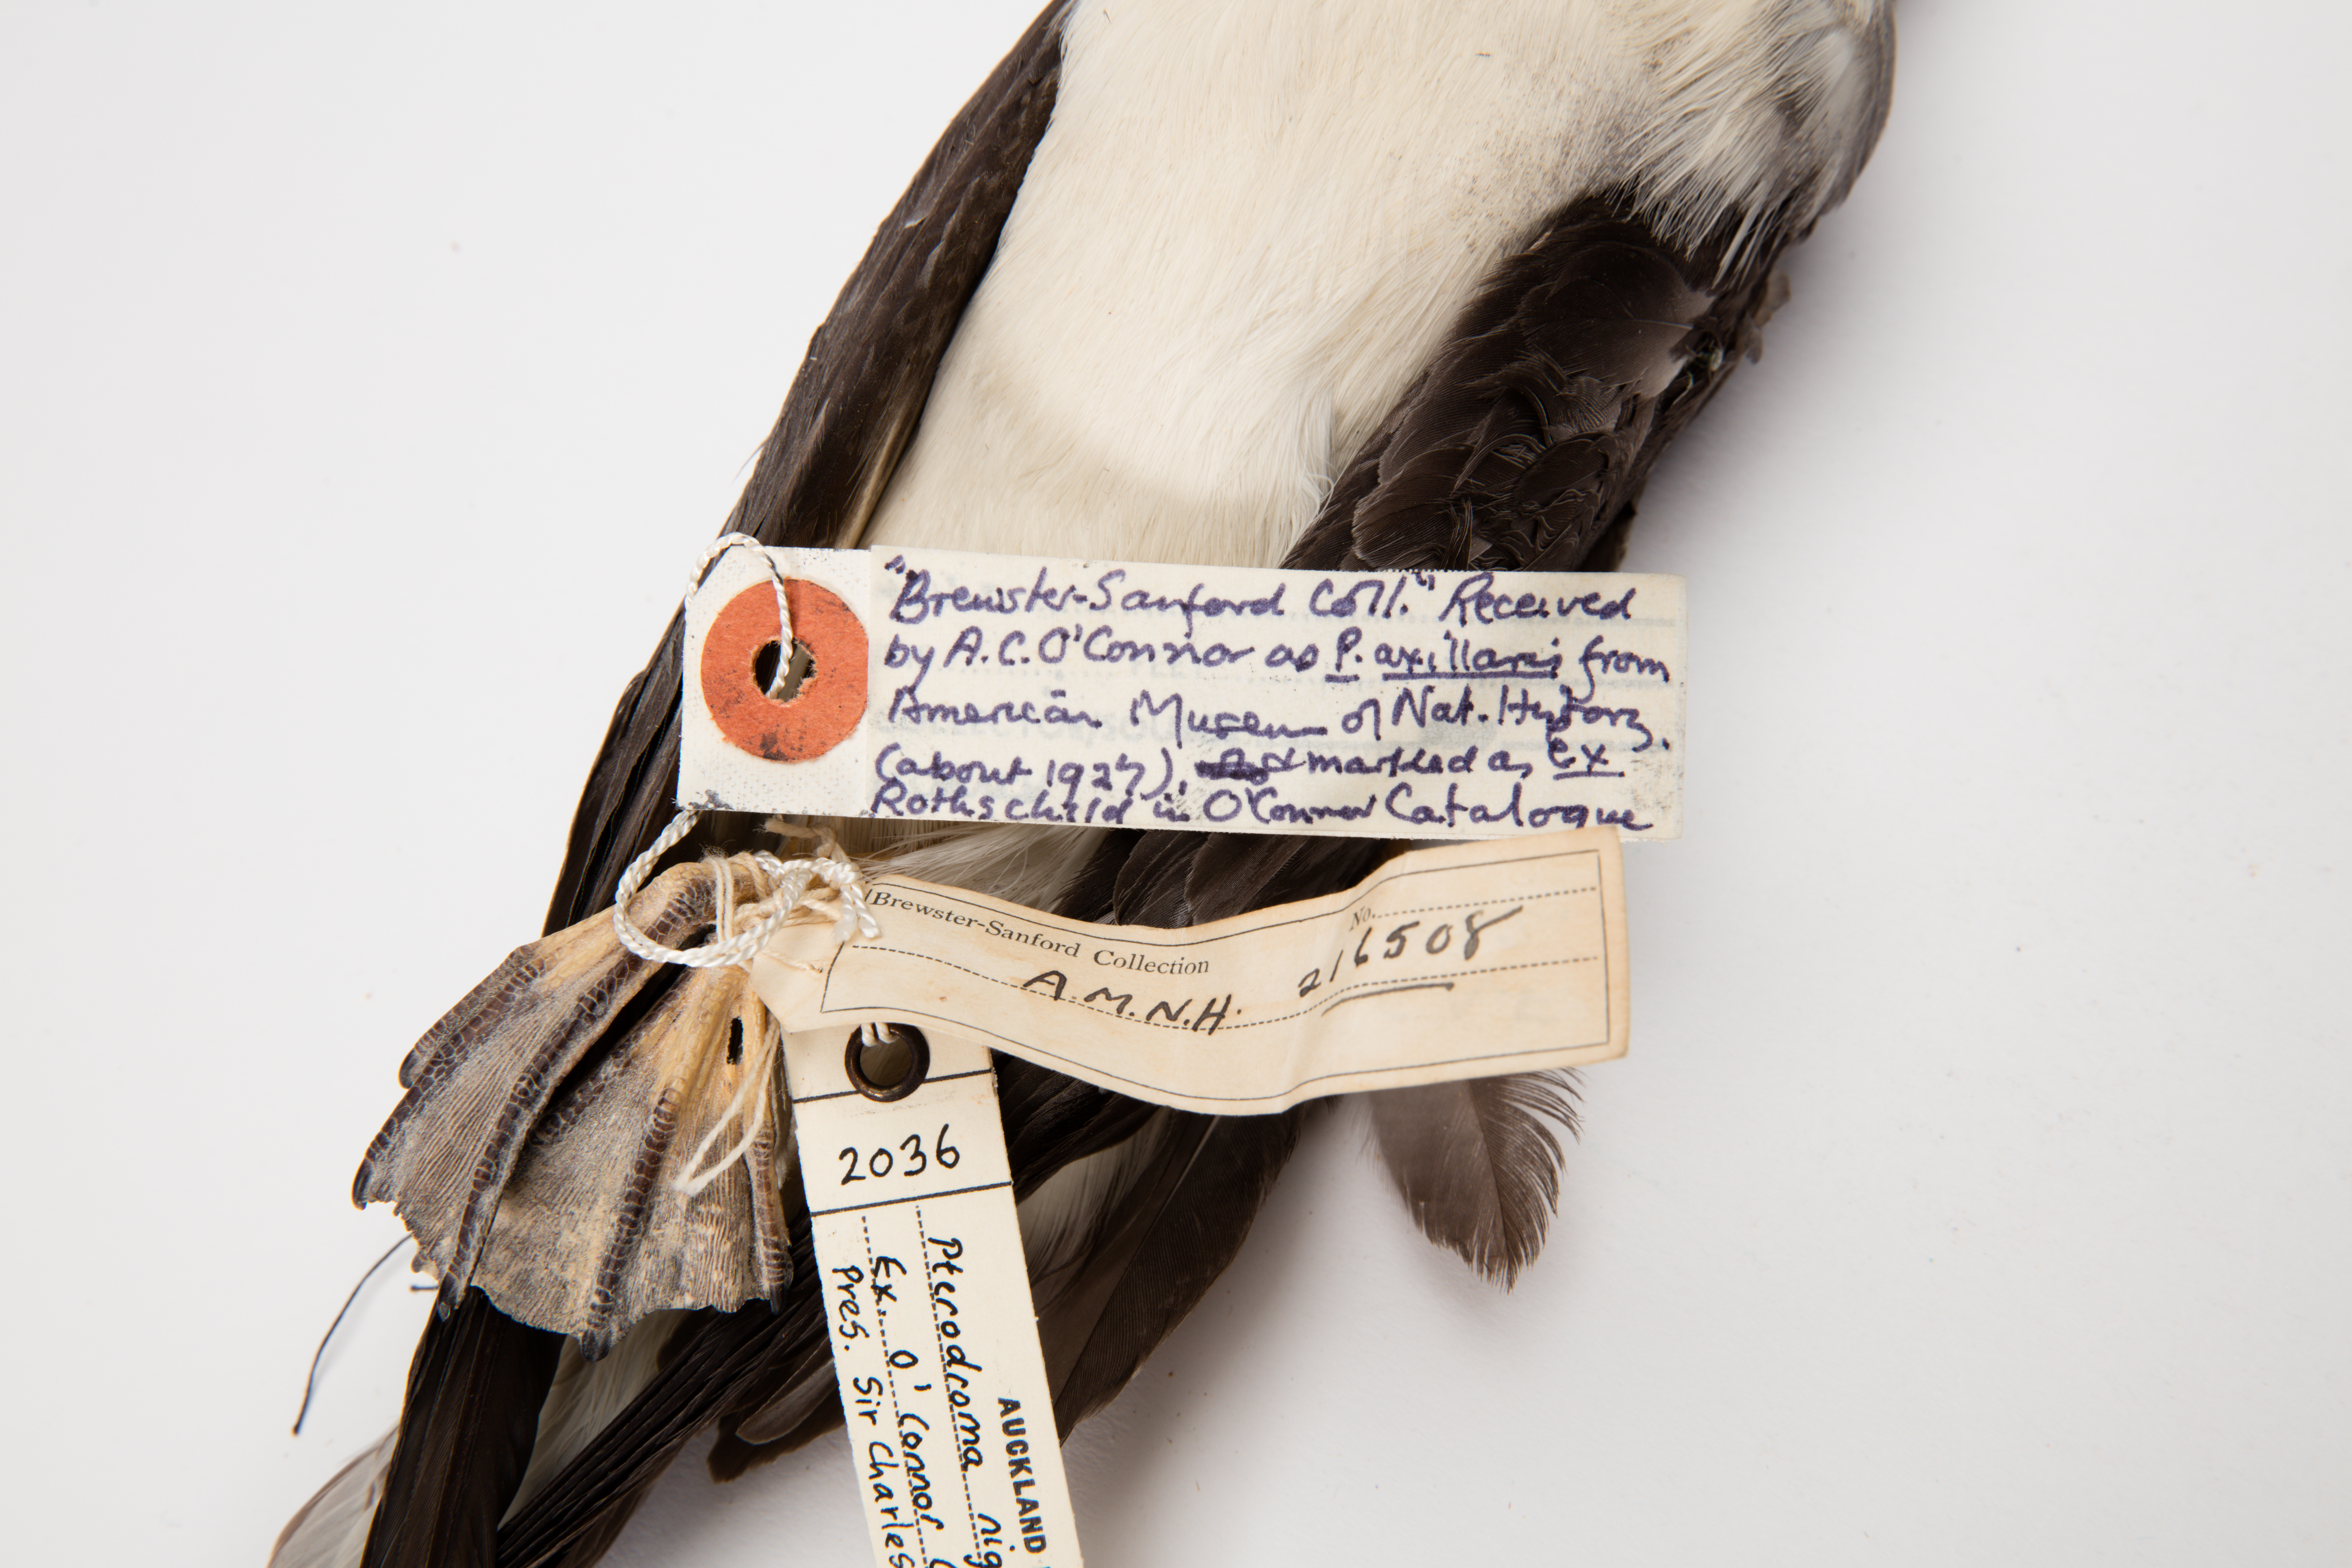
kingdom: Animalia
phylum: Chordata
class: Aves
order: Procellariiformes
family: Procellariidae
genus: Pterodroma
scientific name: Pterodroma nigripennis
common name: Black-winged petrel
